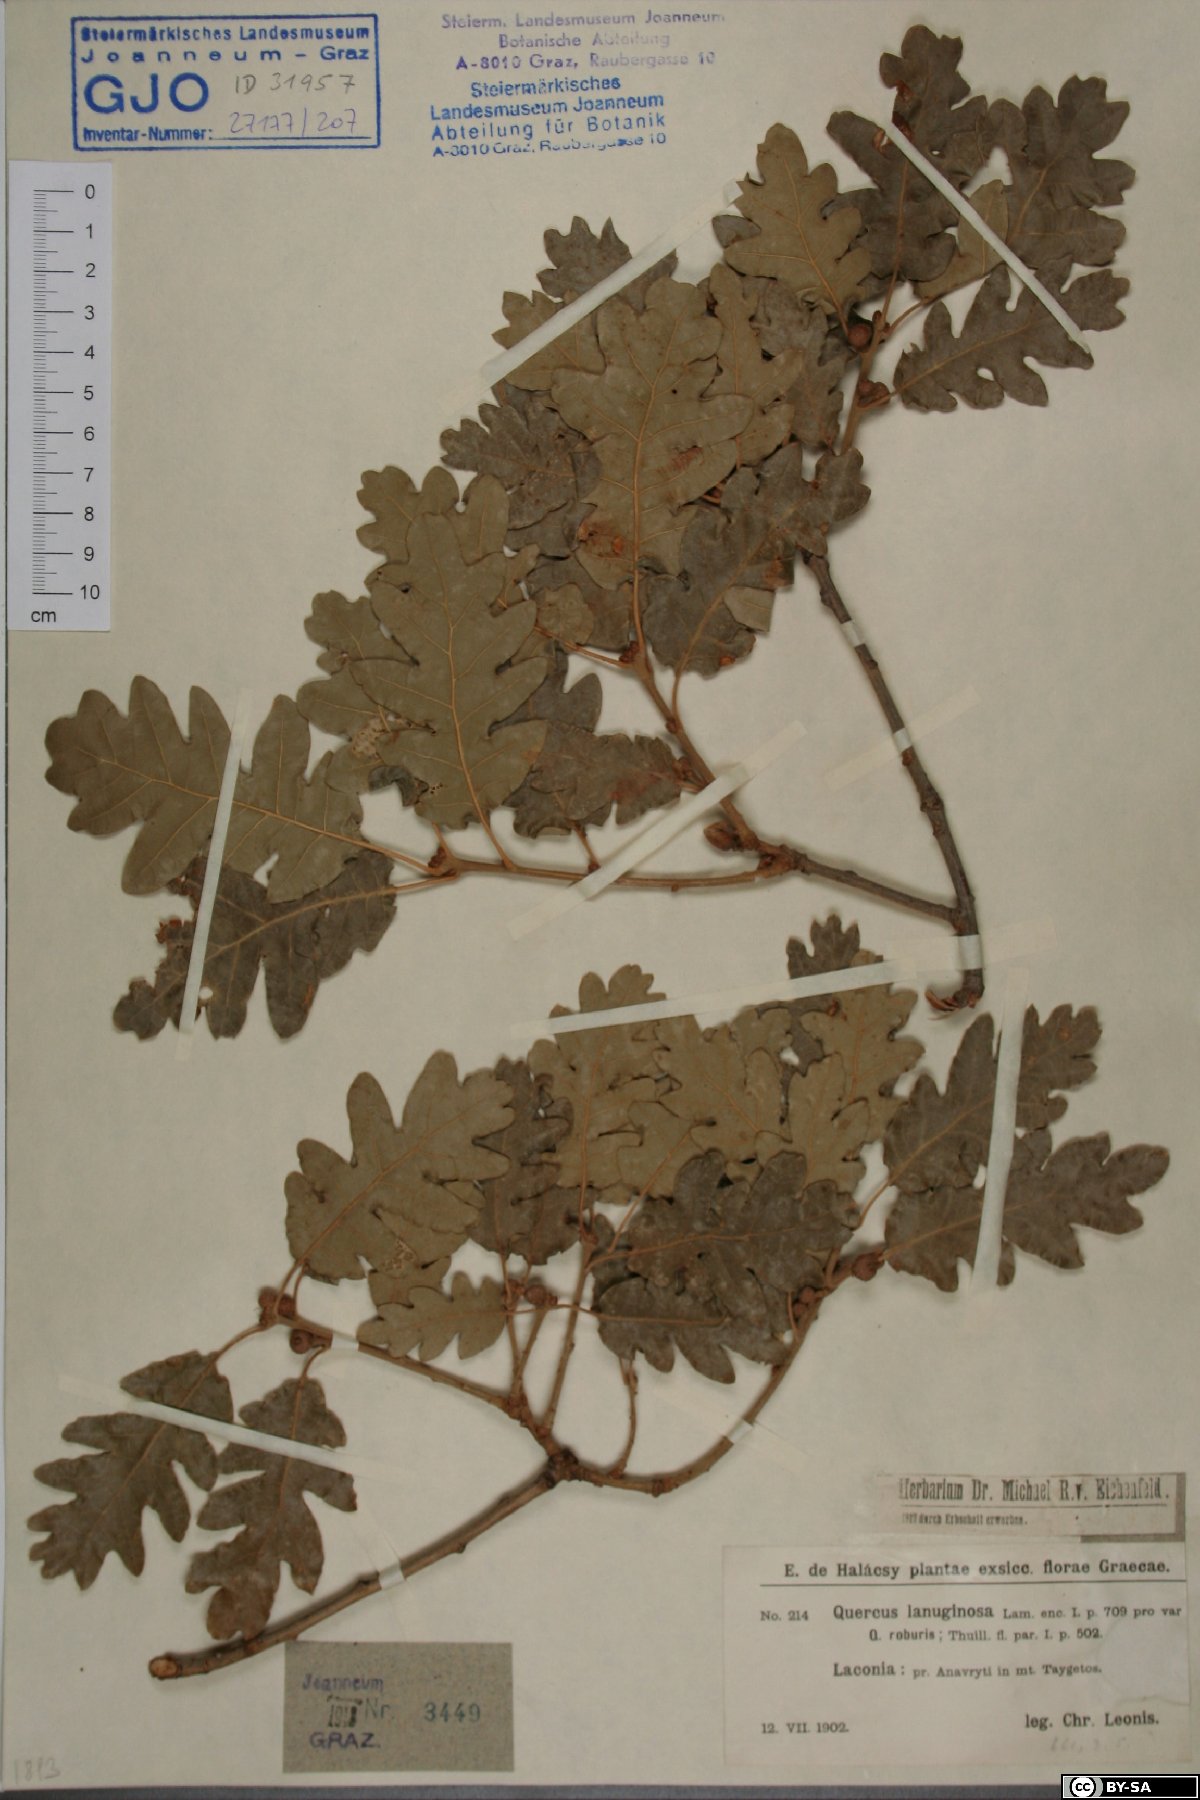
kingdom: Plantae
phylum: Tracheophyta
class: Magnoliopsida
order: Fagales
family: Fagaceae
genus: Quercus
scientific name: Quercus pubescens
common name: Downy oak
